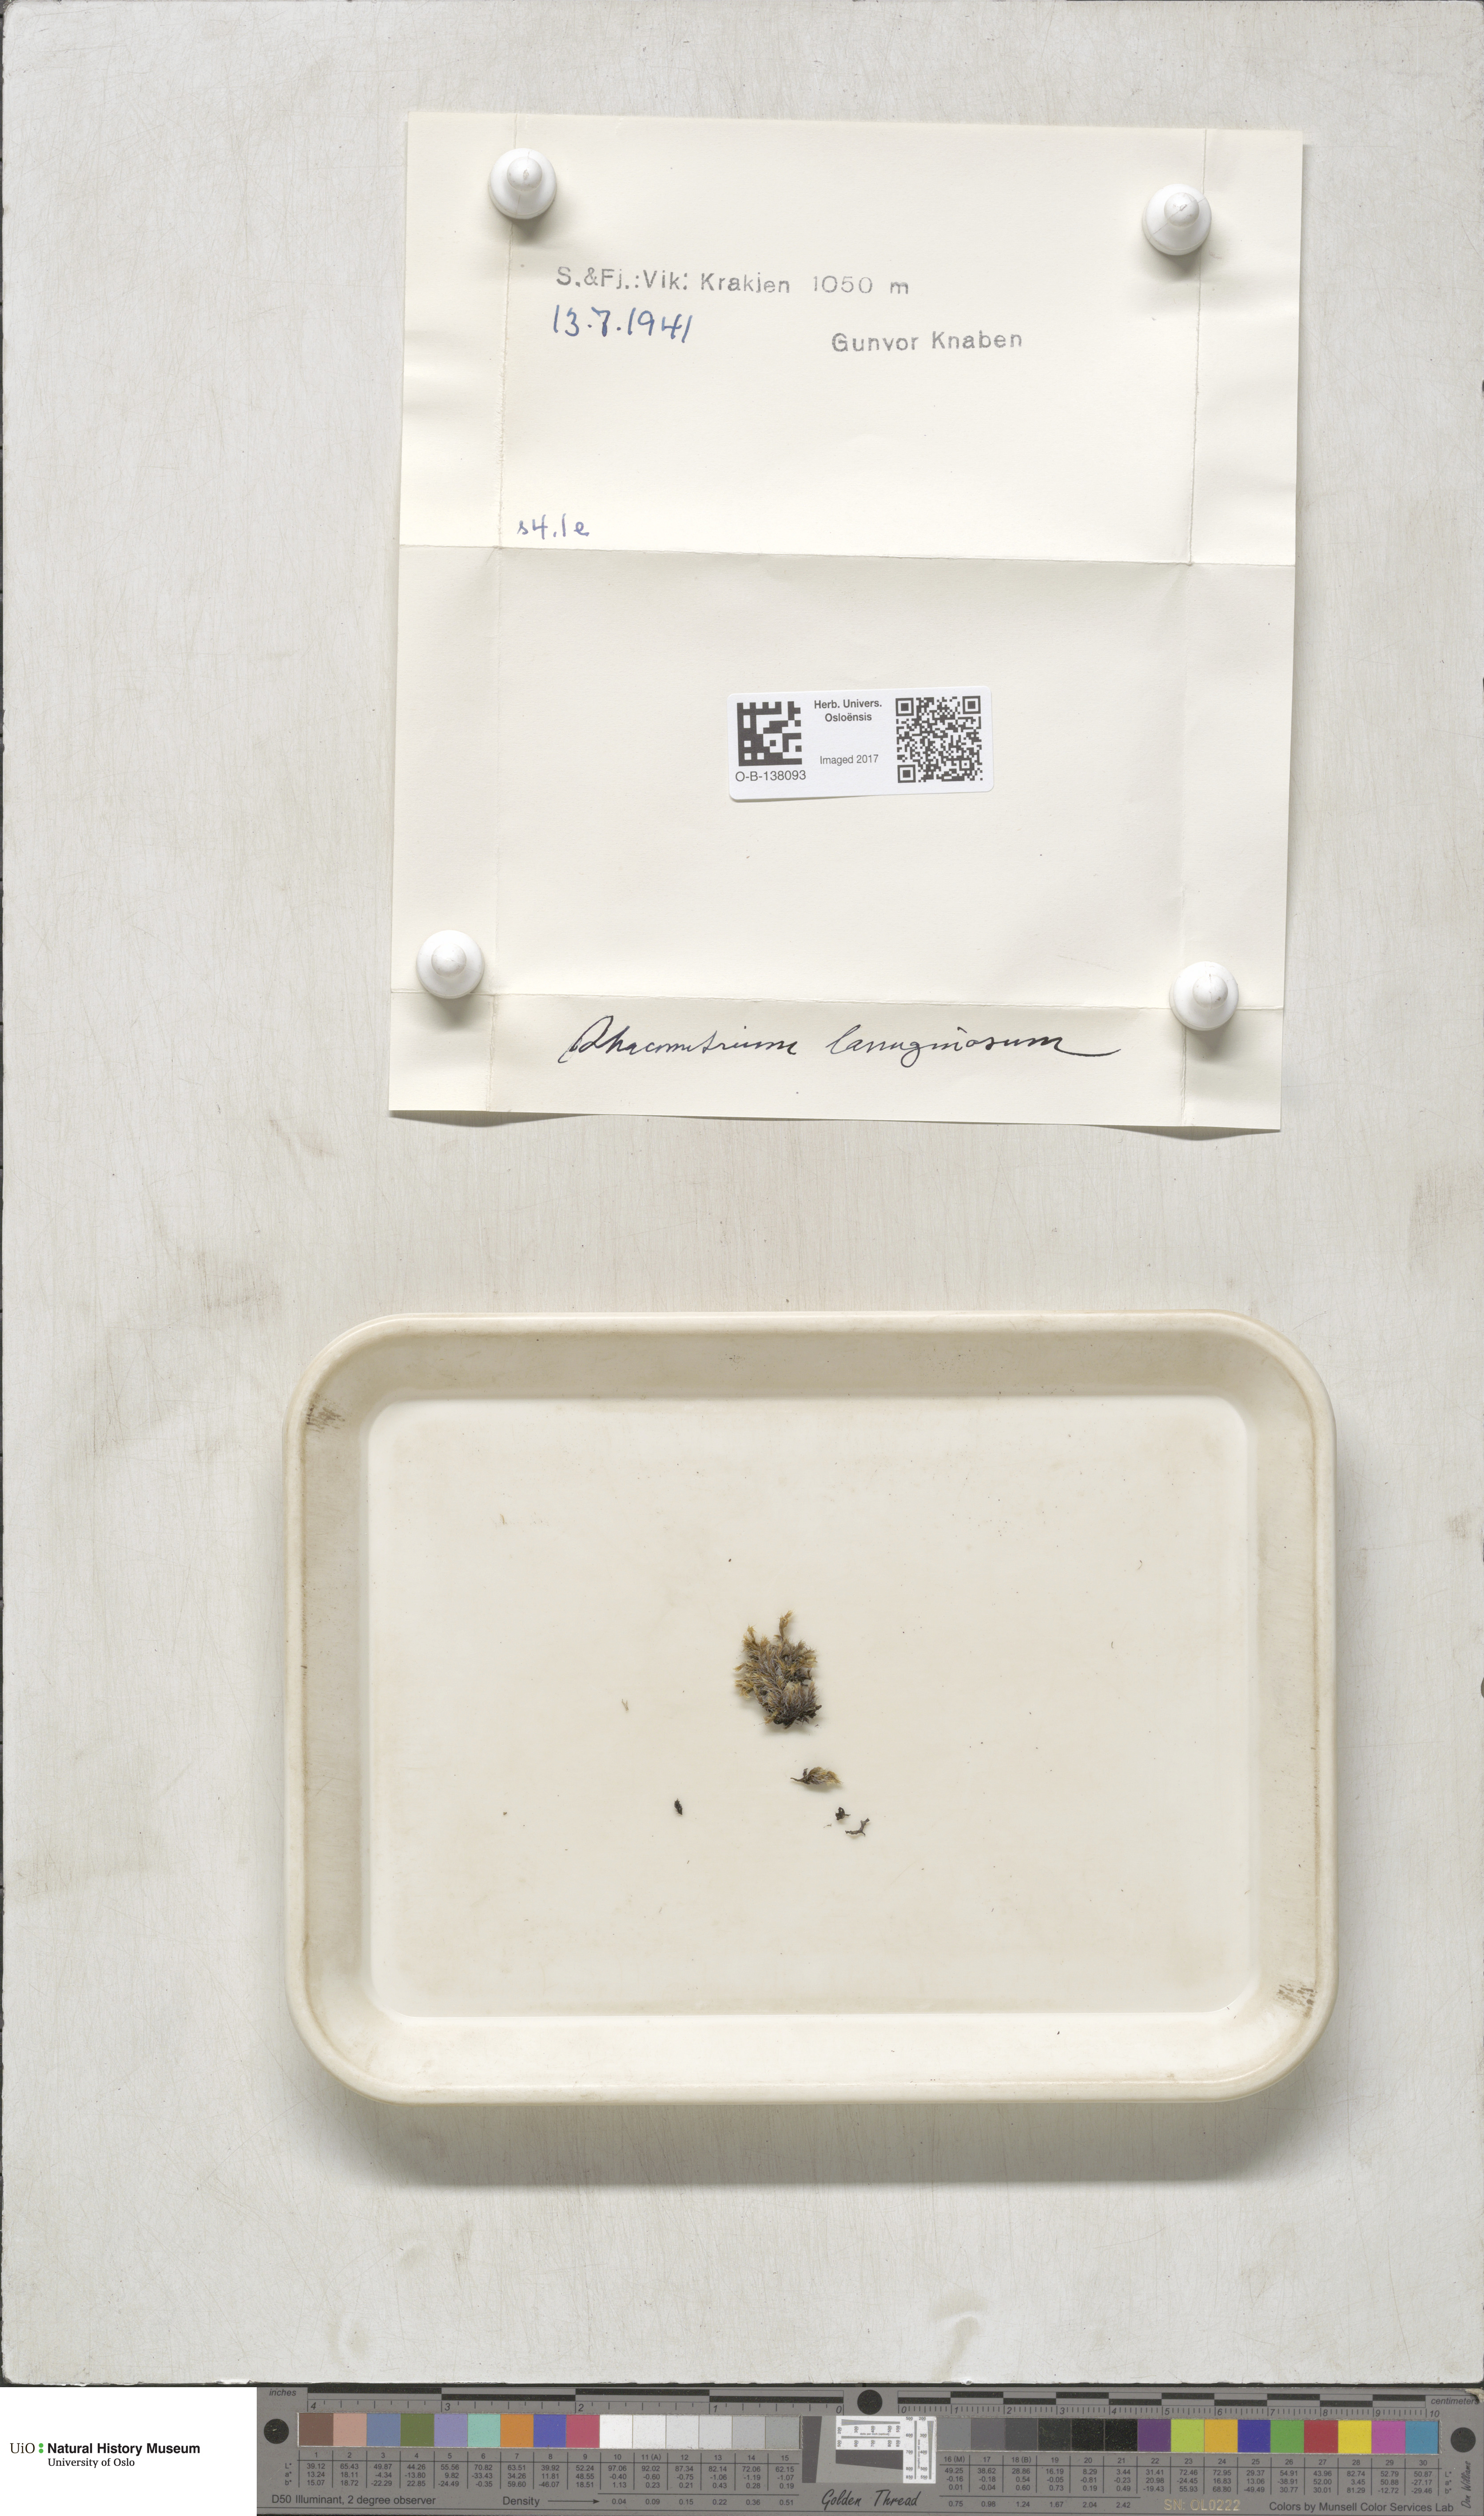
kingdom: Plantae
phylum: Bryophyta
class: Bryopsida
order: Grimmiales
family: Grimmiaceae
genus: Racomitrium
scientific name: Racomitrium lanuginosum
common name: Hoary rock moss
